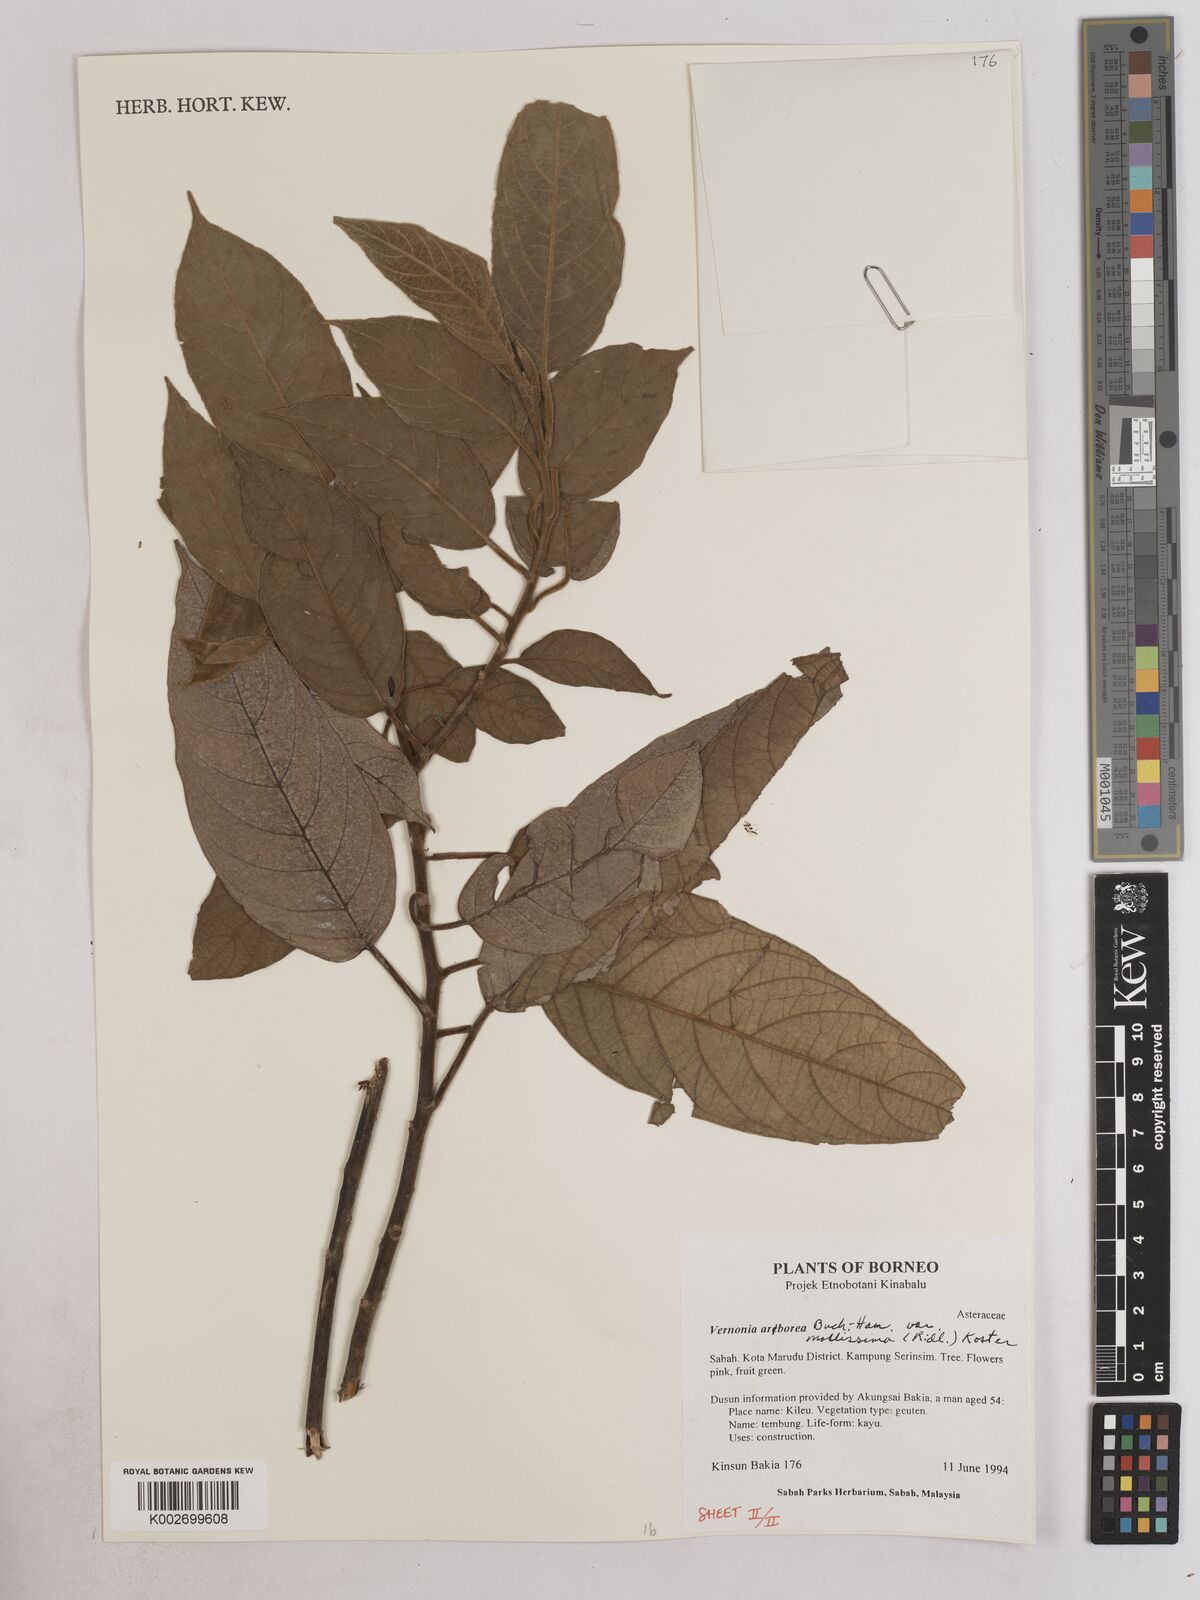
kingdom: Plantae
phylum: Tracheophyta
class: Magnoliopsida
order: Asterales
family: Asteraceae
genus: Strobocalyx
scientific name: Strobocalyx arborea
